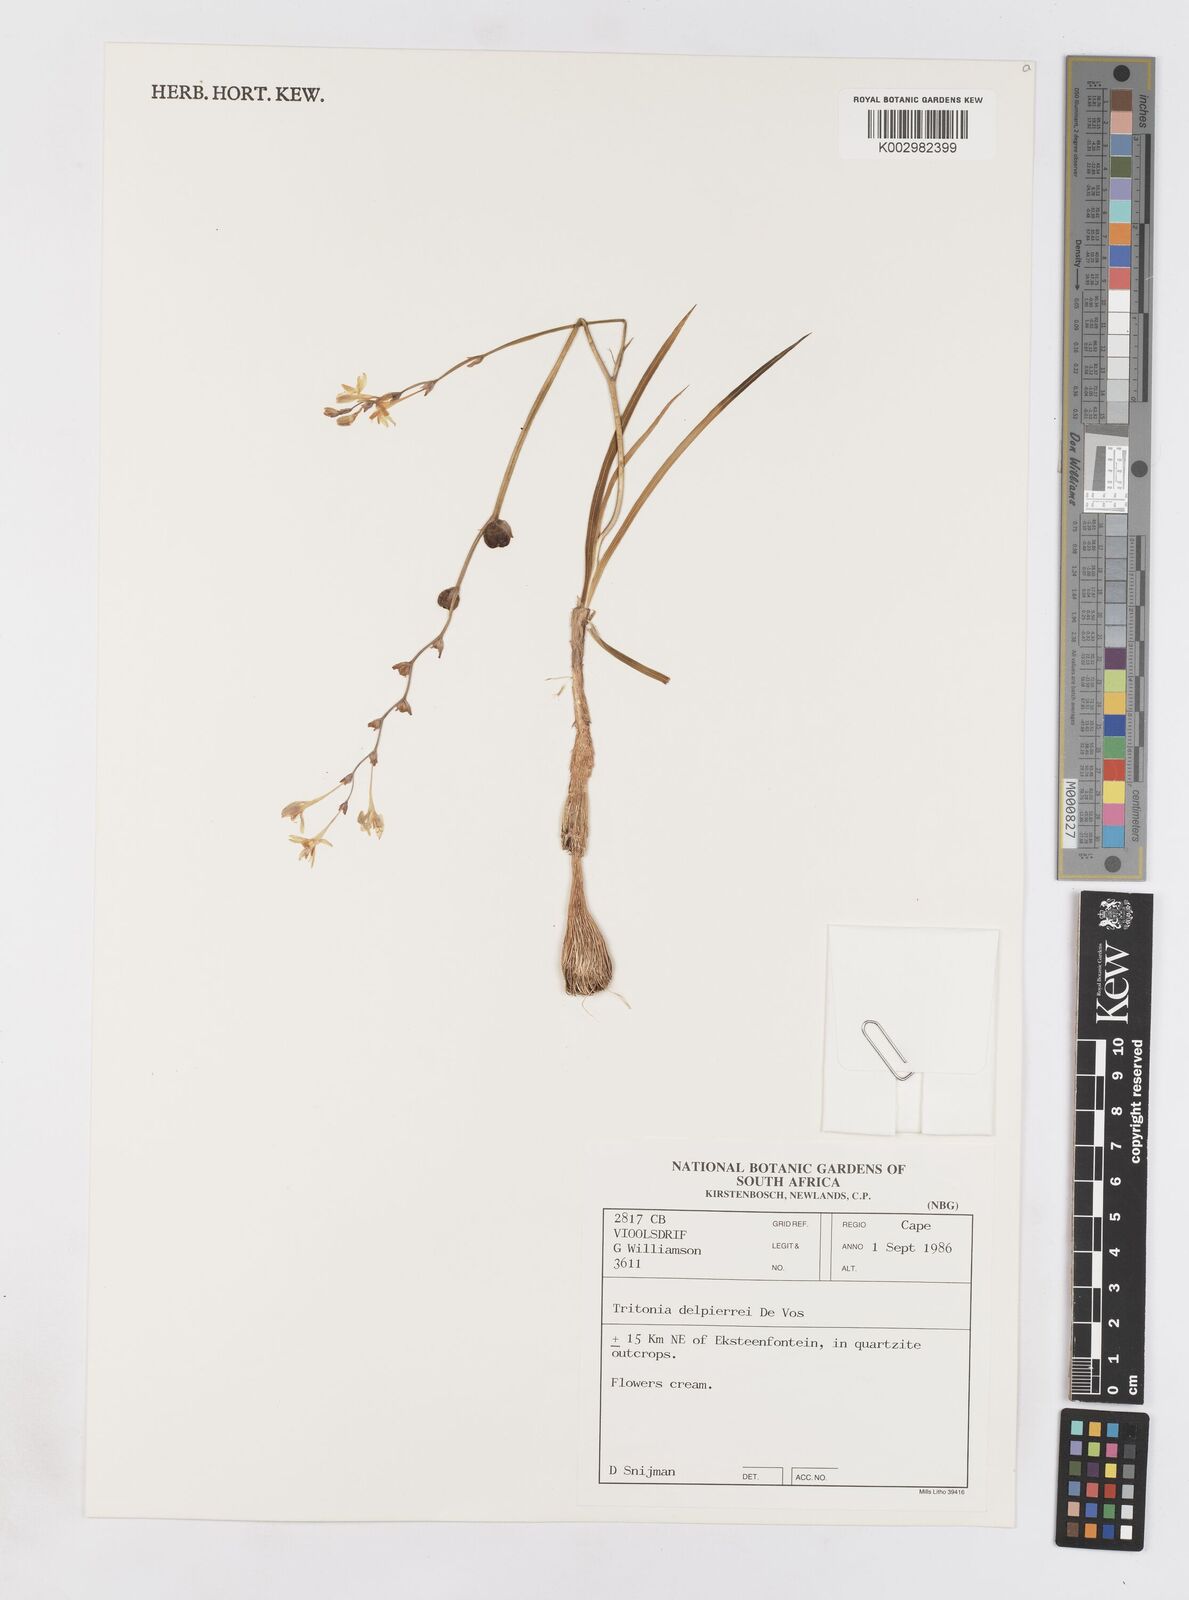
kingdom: Plantae
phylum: Tracheophyta
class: Liliopsida
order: Asparagales
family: Iridaceae
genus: Tritonia
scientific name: Tritonia delpierrei
